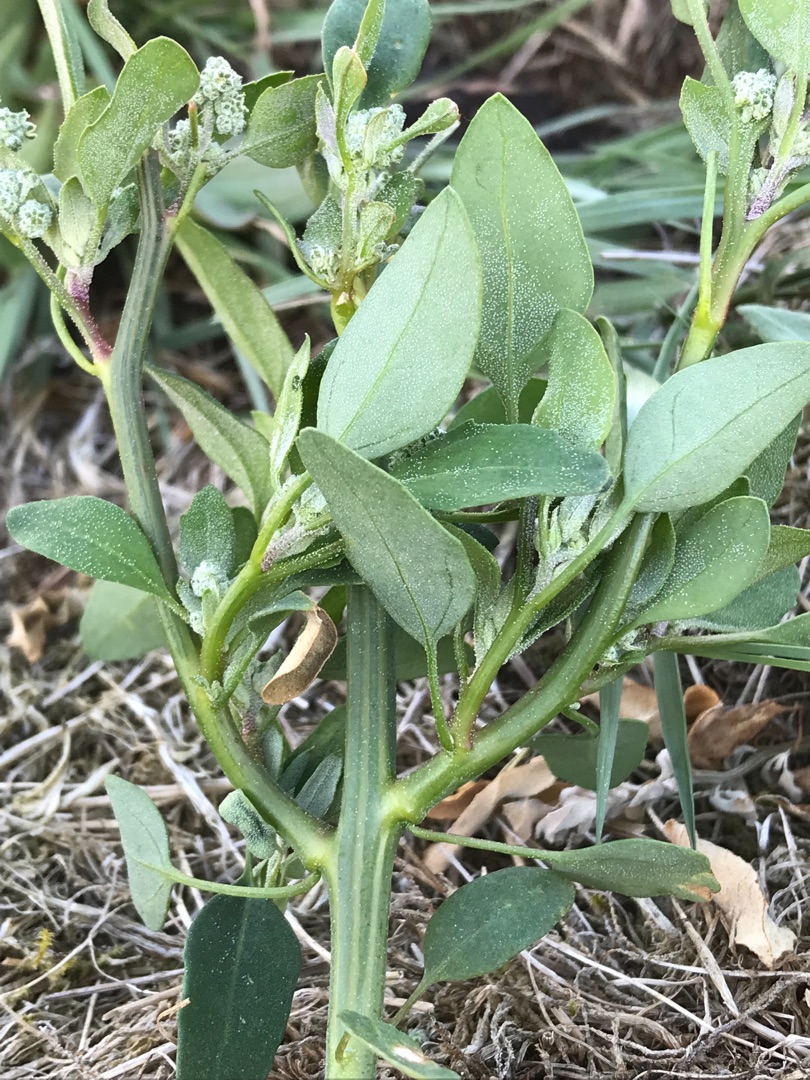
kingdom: Plantae
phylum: Tracheophyta
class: Magnoliopsida
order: Caryophyllales
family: Amaranthaceae
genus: Chenopodium
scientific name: Chenopodium album
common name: Hvidmelet gåsefod
